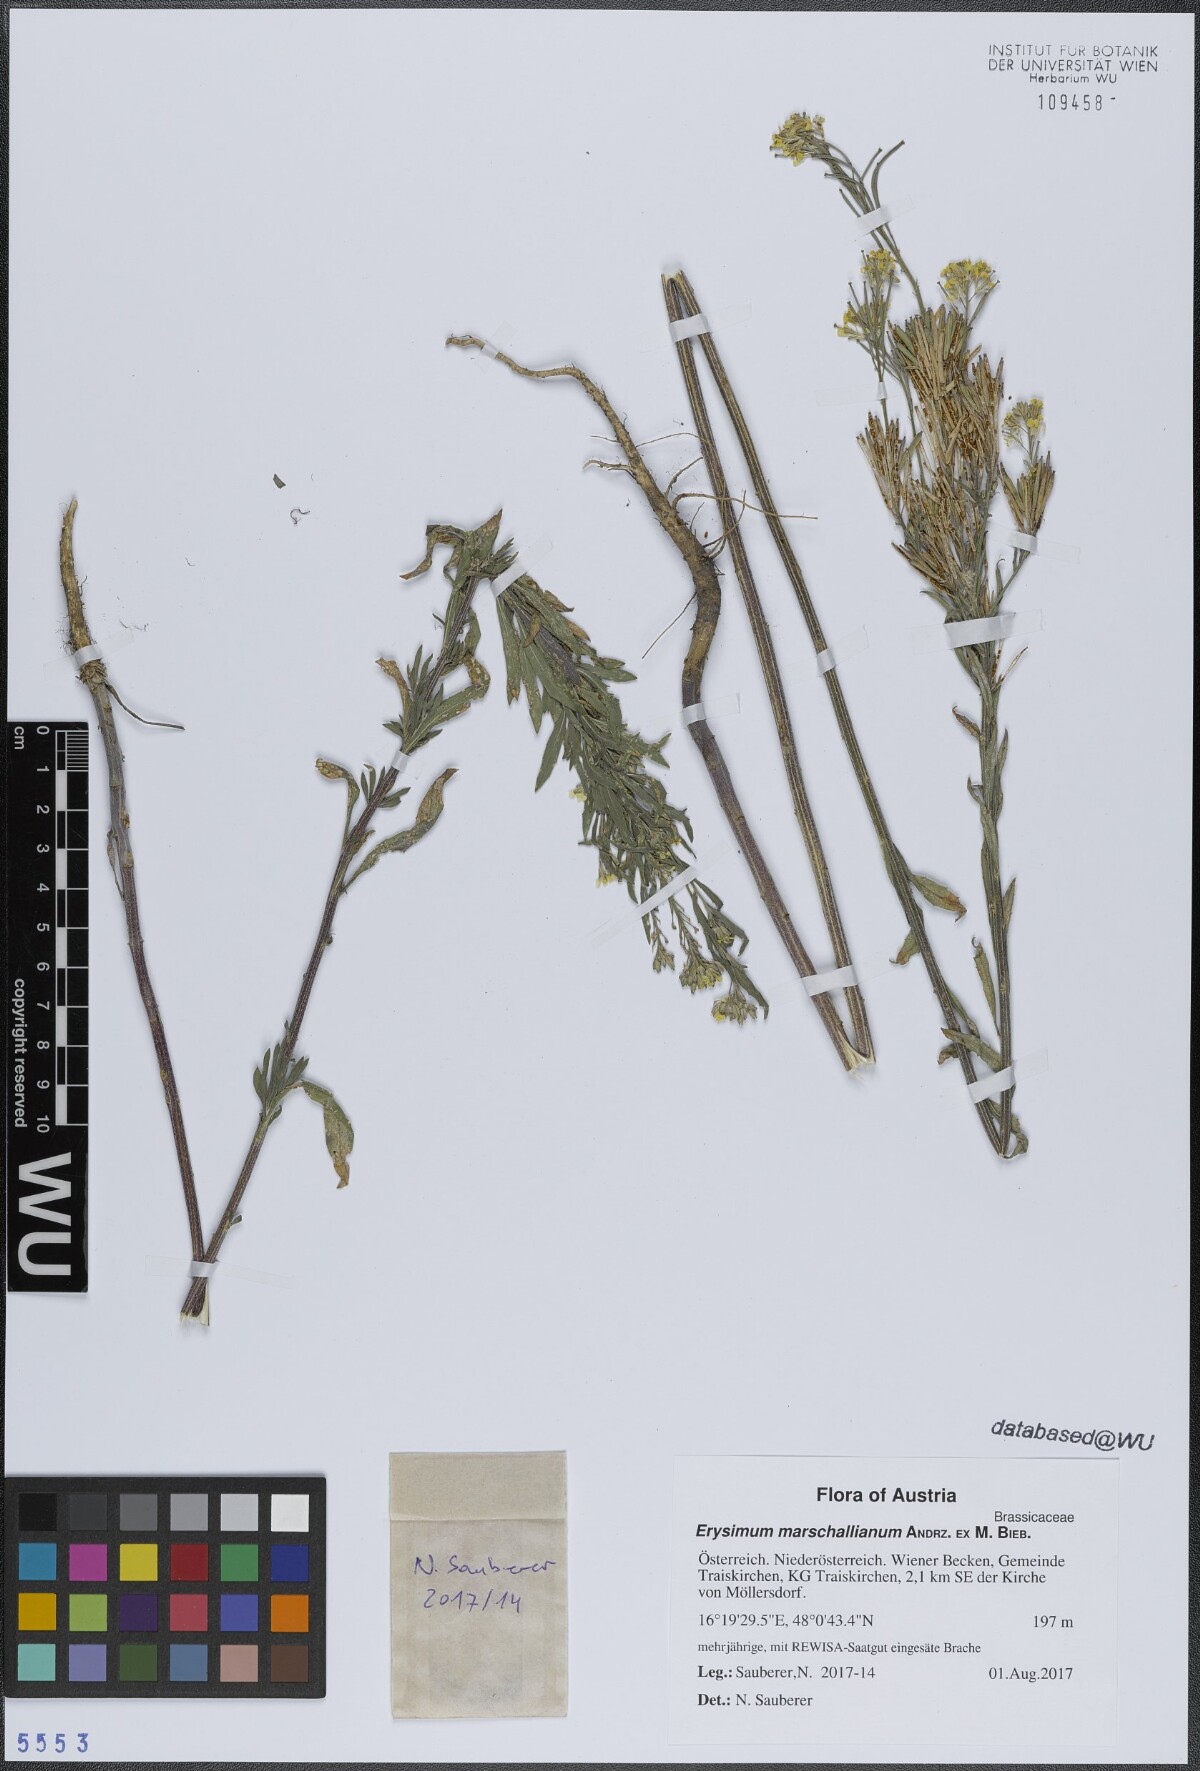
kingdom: Plantae
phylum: Tracheophyta
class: Magnoliopsida
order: Brassicales
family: Brassicaceae
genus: Erysimum
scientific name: Erysimum marschallianum
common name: Hard wallflower
